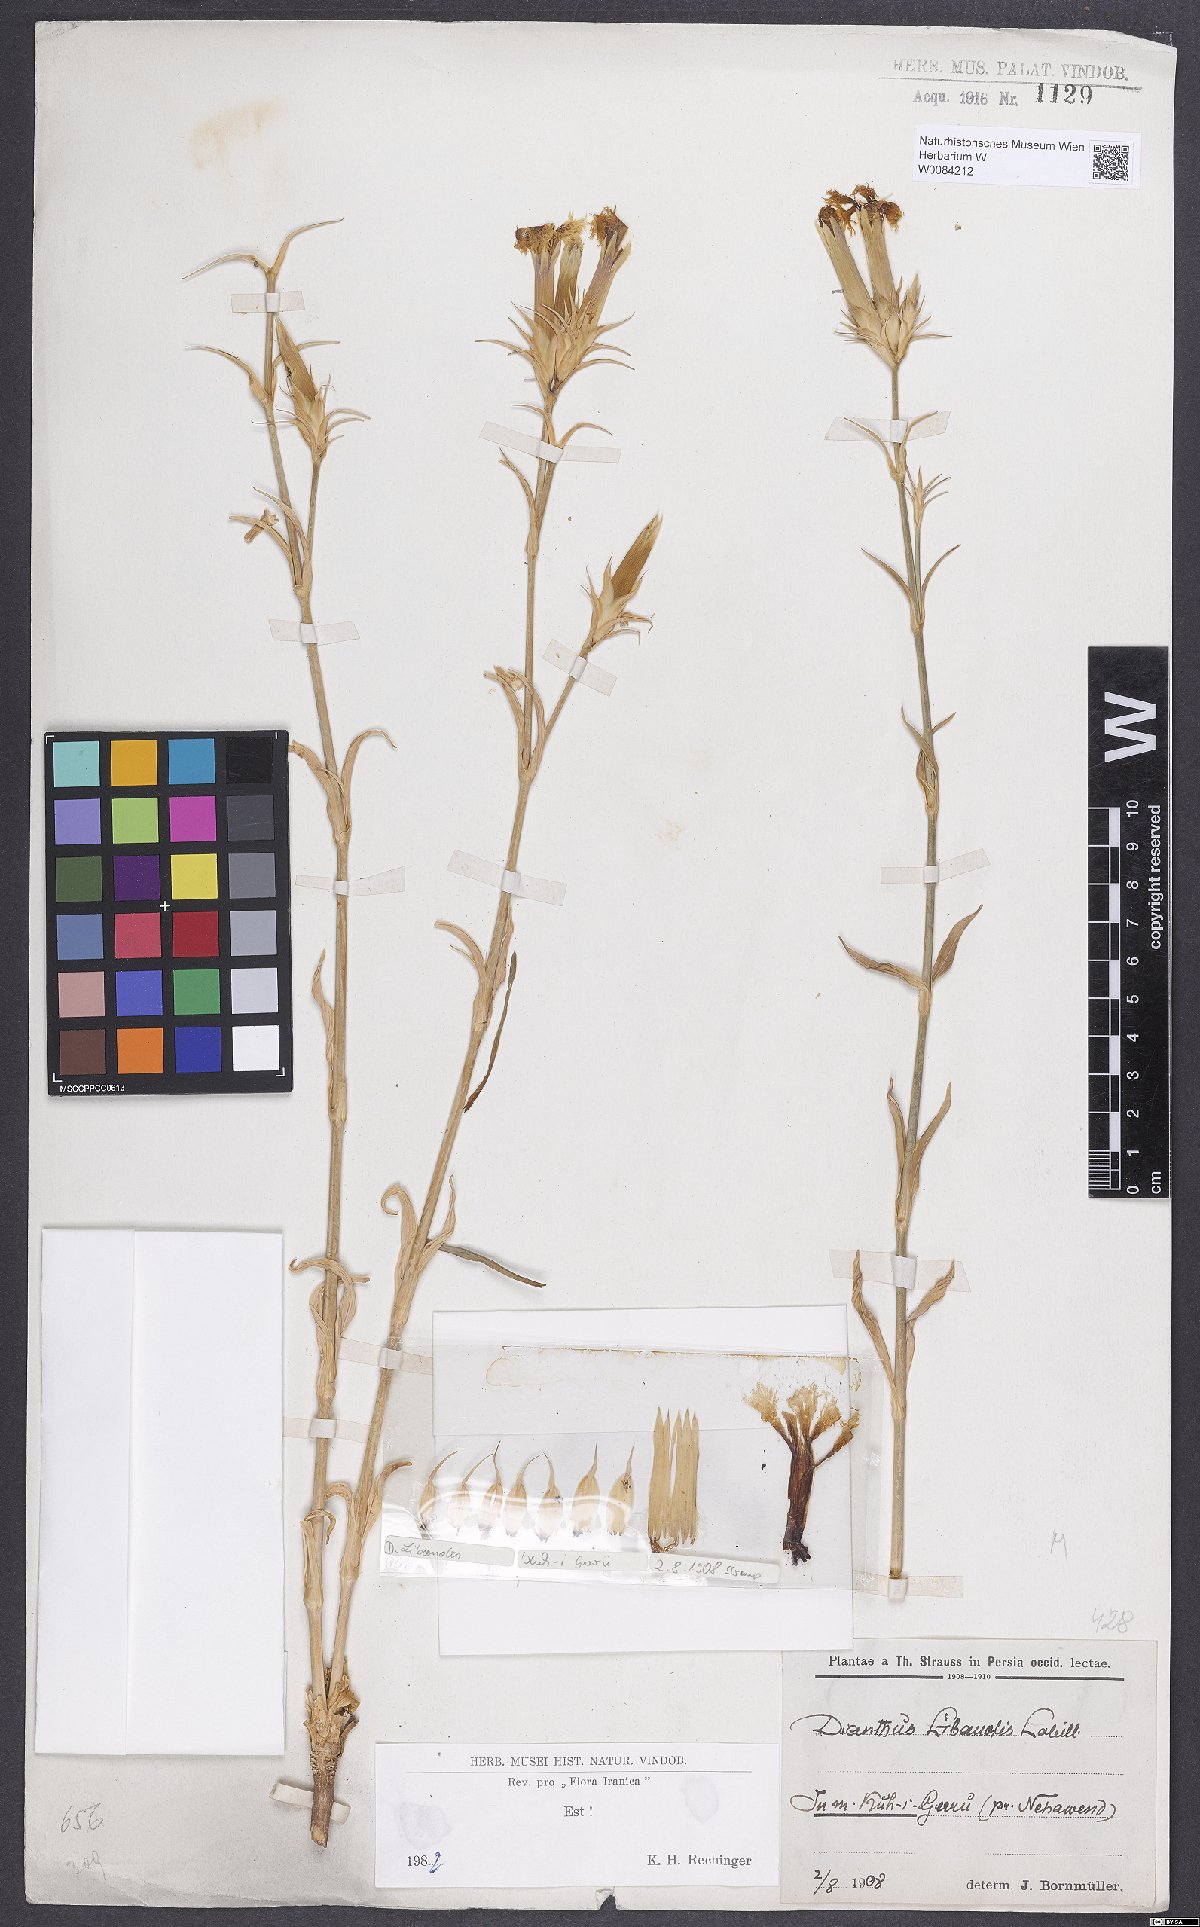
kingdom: Plantae
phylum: Tracheophyta
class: Magnoliopsida
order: Caryophyllales
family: Caryophyllaceae
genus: Dianthus
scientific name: Dianthus libanotis
